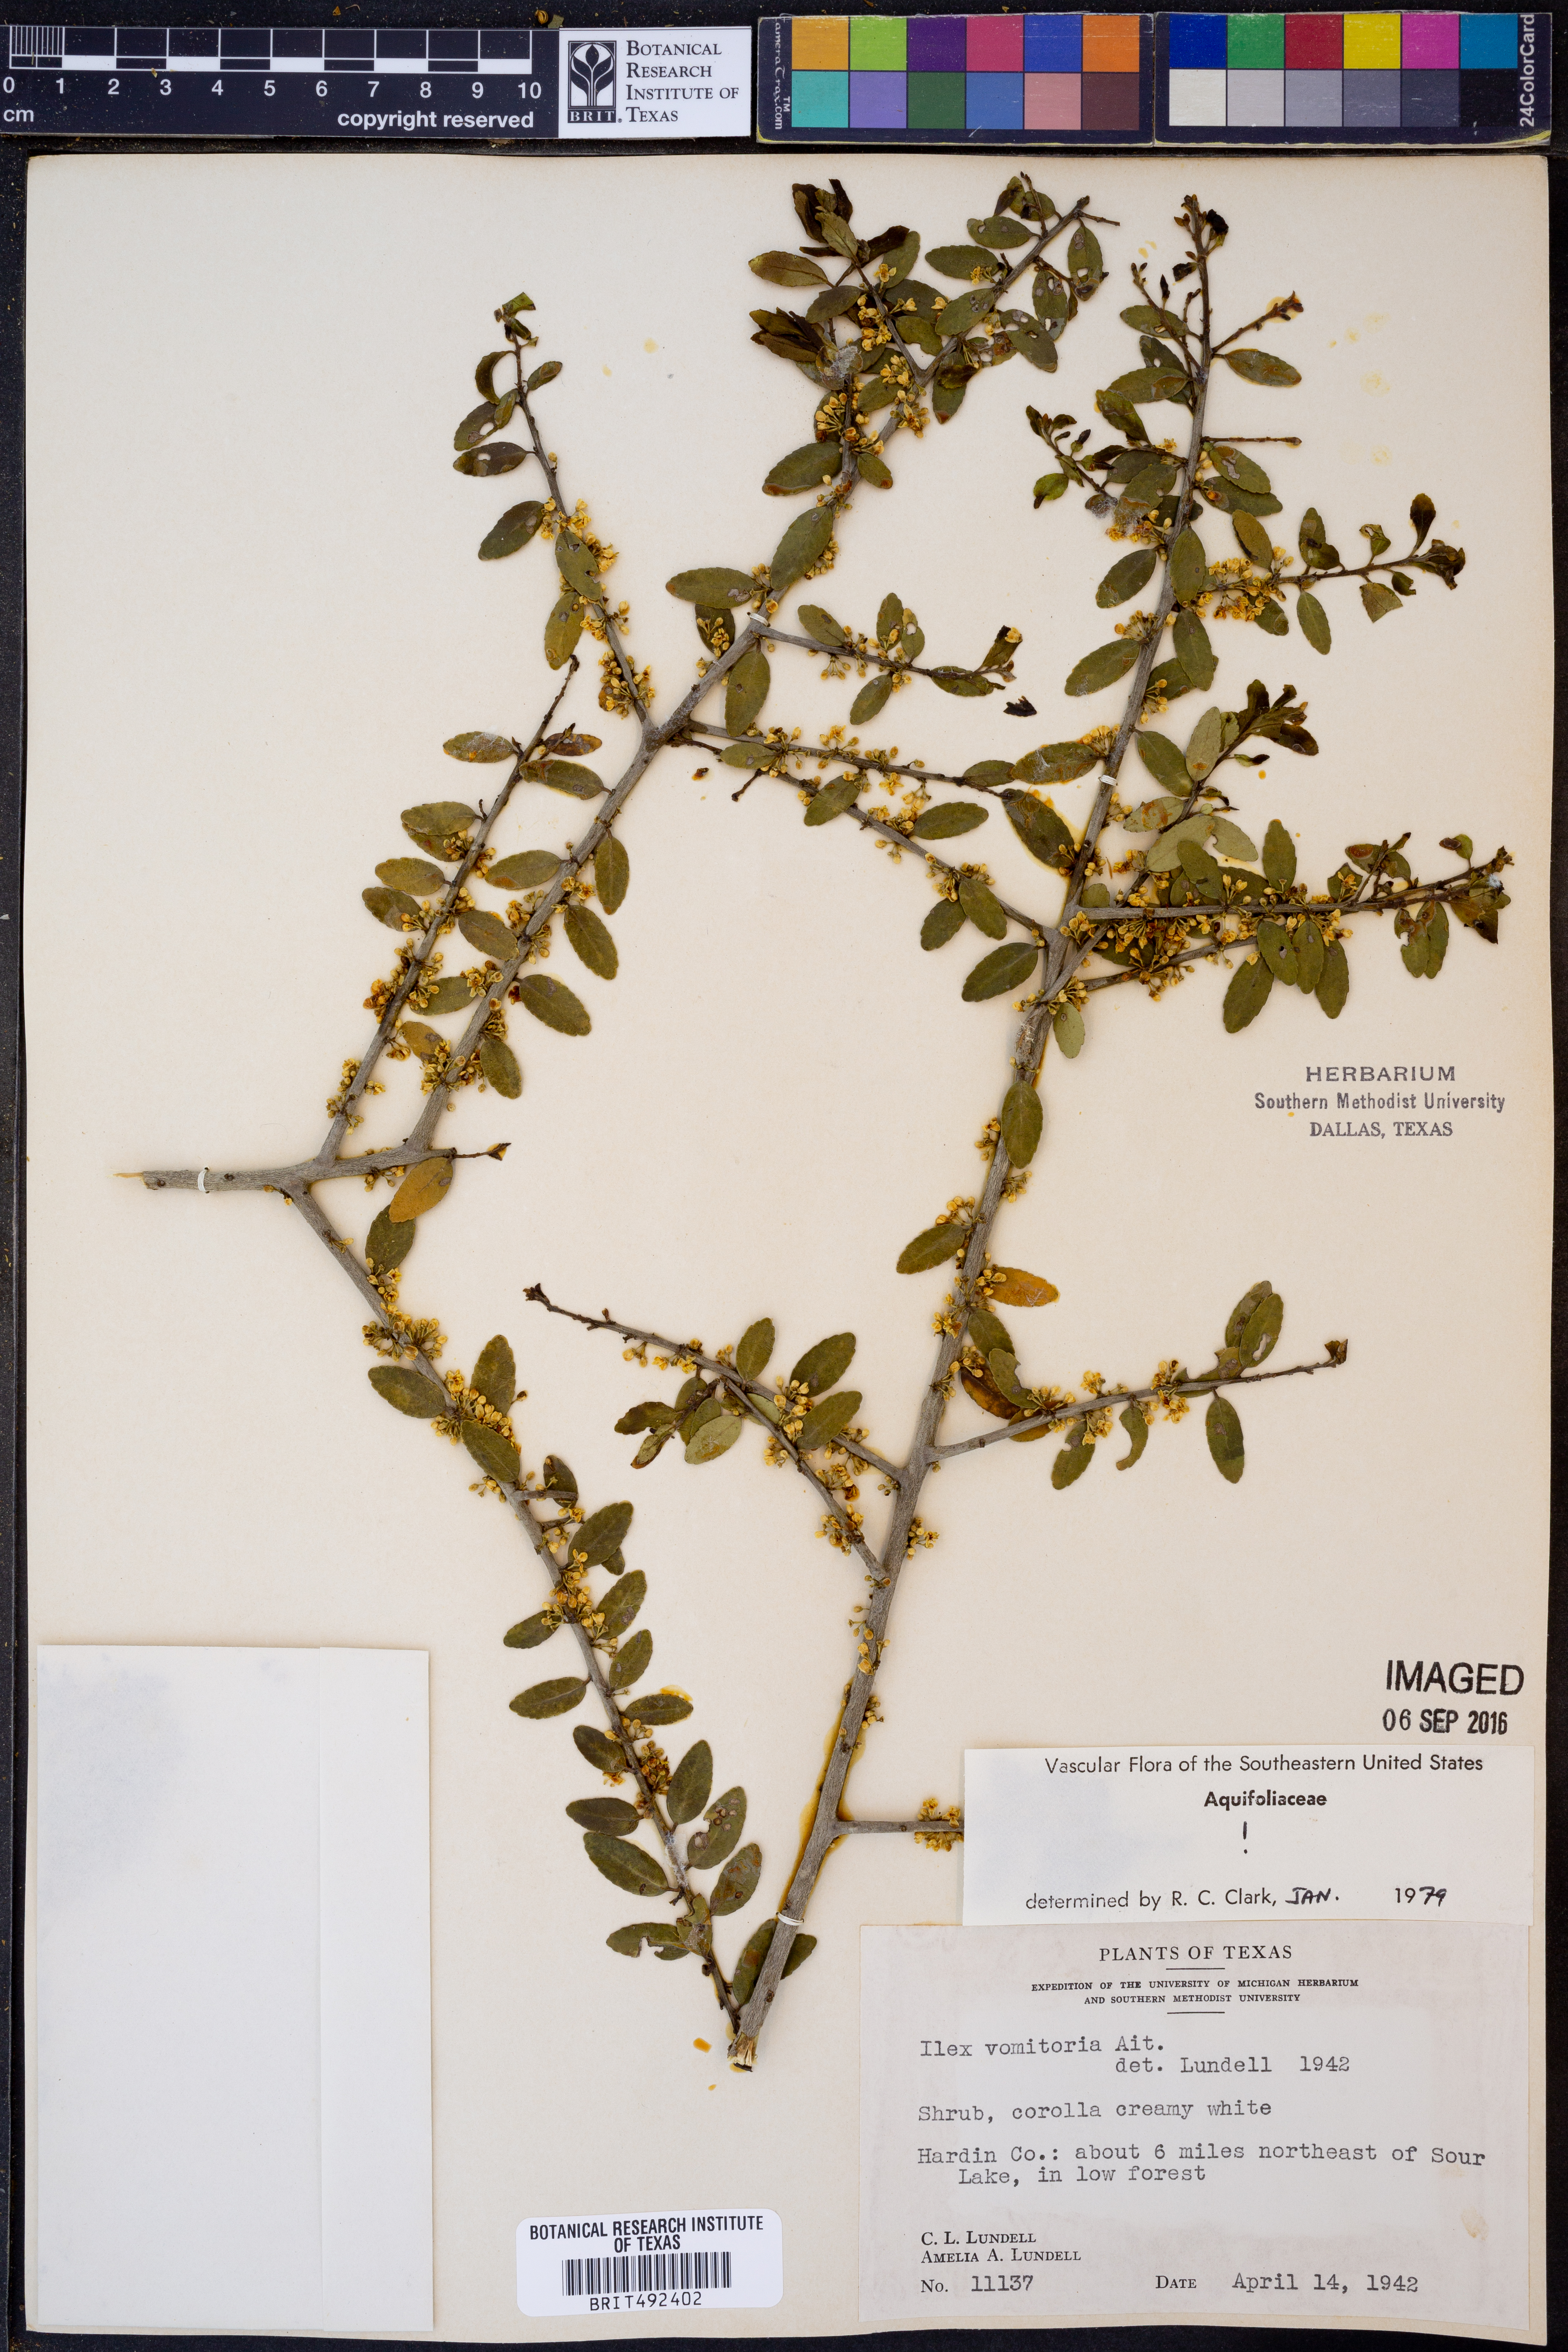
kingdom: Plantae
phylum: Tracheophyta
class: Magnoliopsida
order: Aquifoliales
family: Aquifoliaceae
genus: Ilex
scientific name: Ilex vomitoria
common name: Yaupon holly
